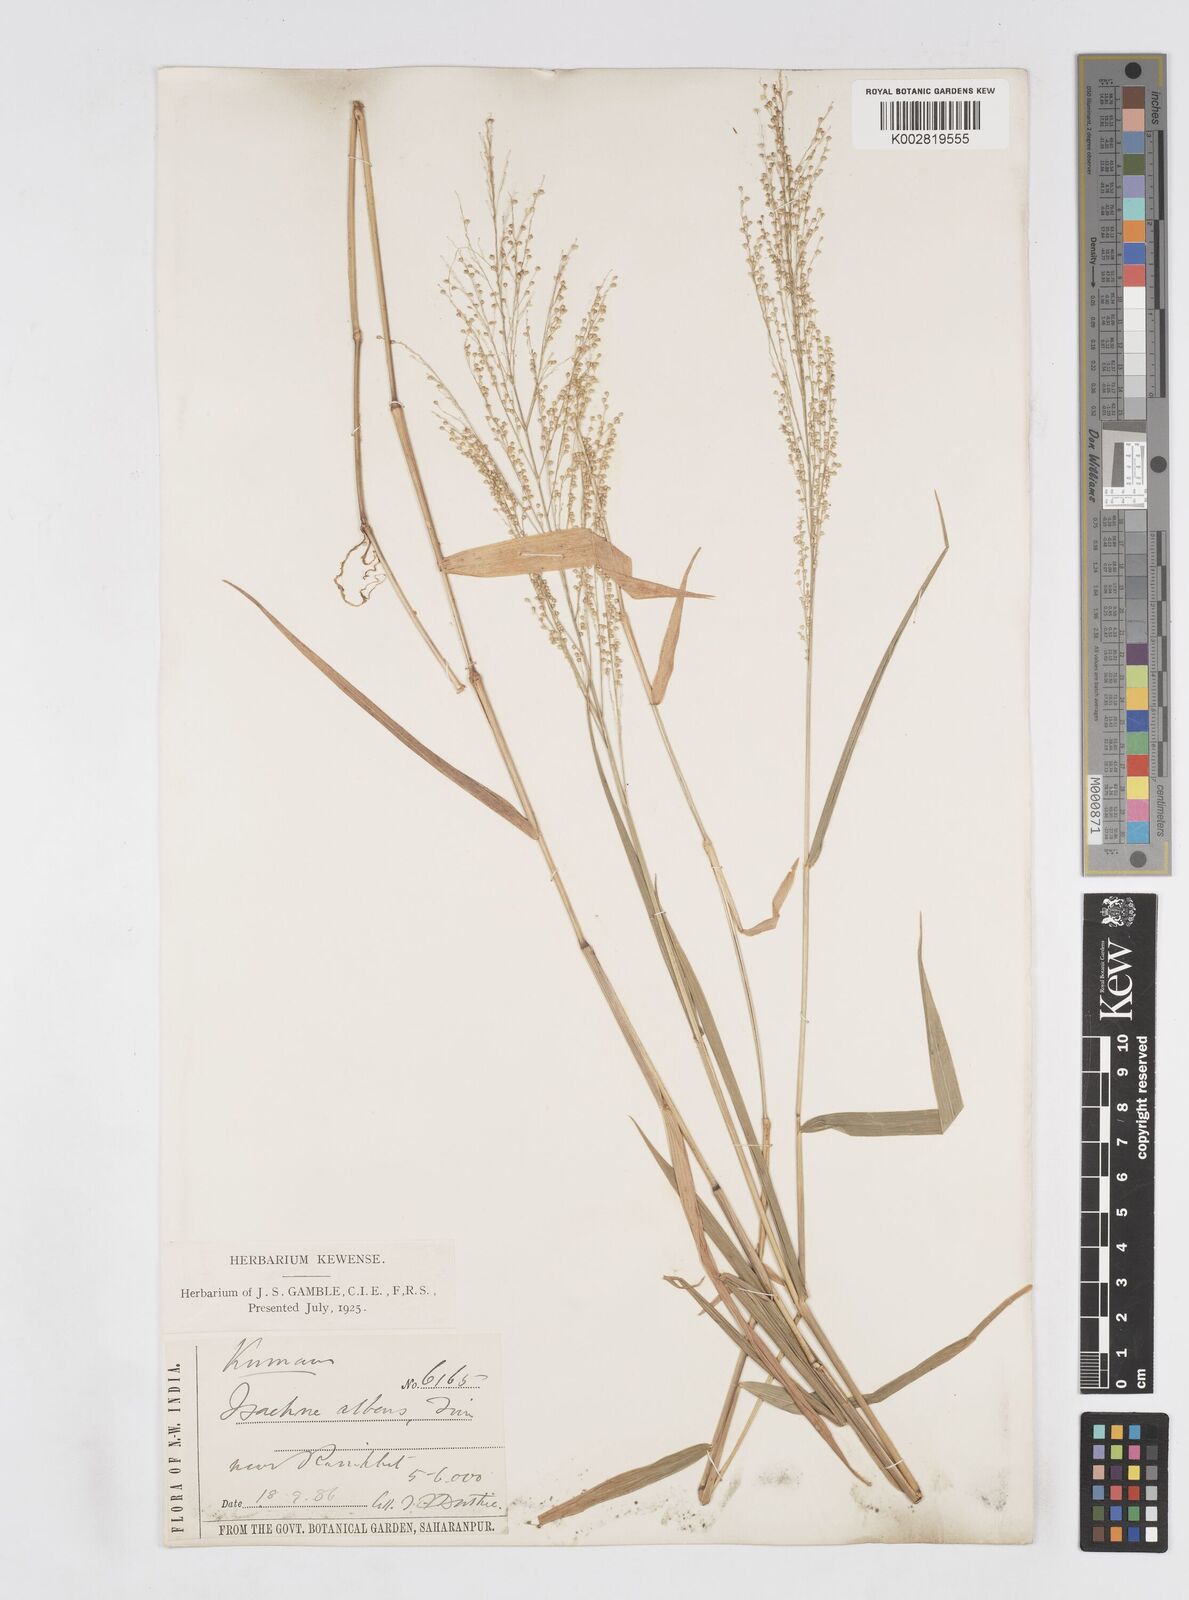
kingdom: Plantae
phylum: Tracheophyta
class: Liliopsida
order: Poales
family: Poaceae
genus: Isachne
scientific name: Isachne albens
